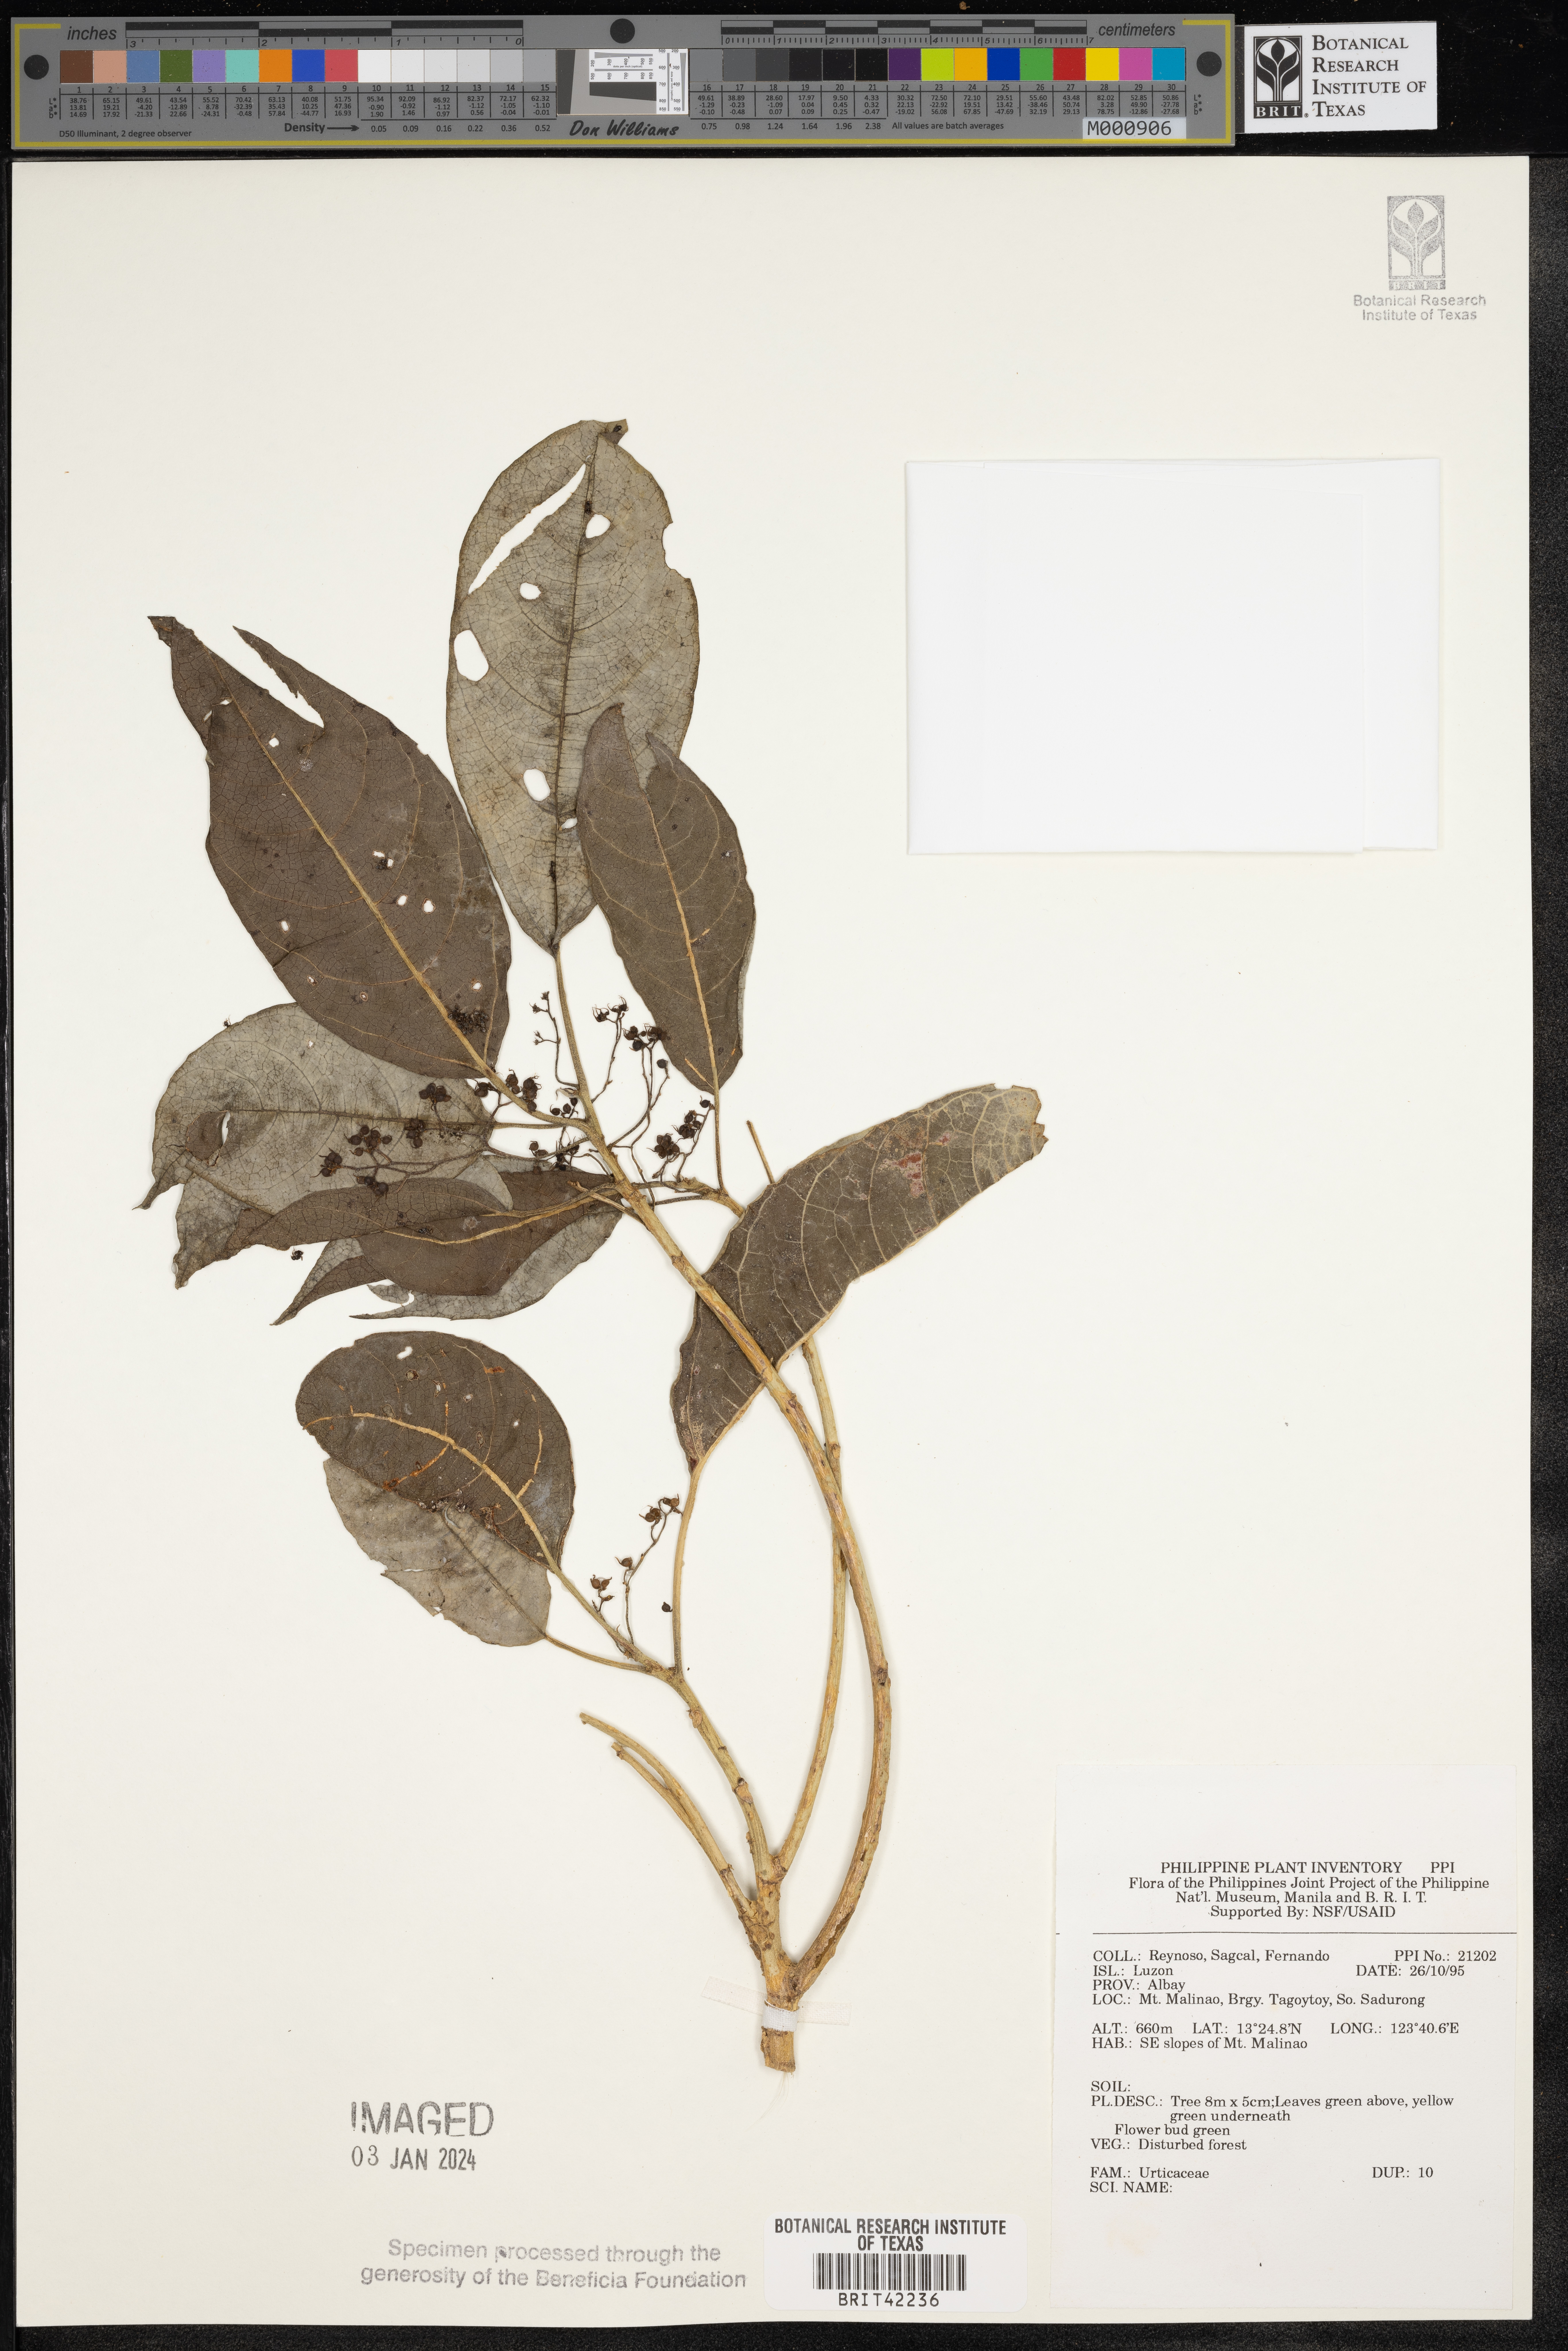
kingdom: Plantae
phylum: Tracheophyta
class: Magnoliopsida
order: Rosales
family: Urticaceae
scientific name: Urticaceae
